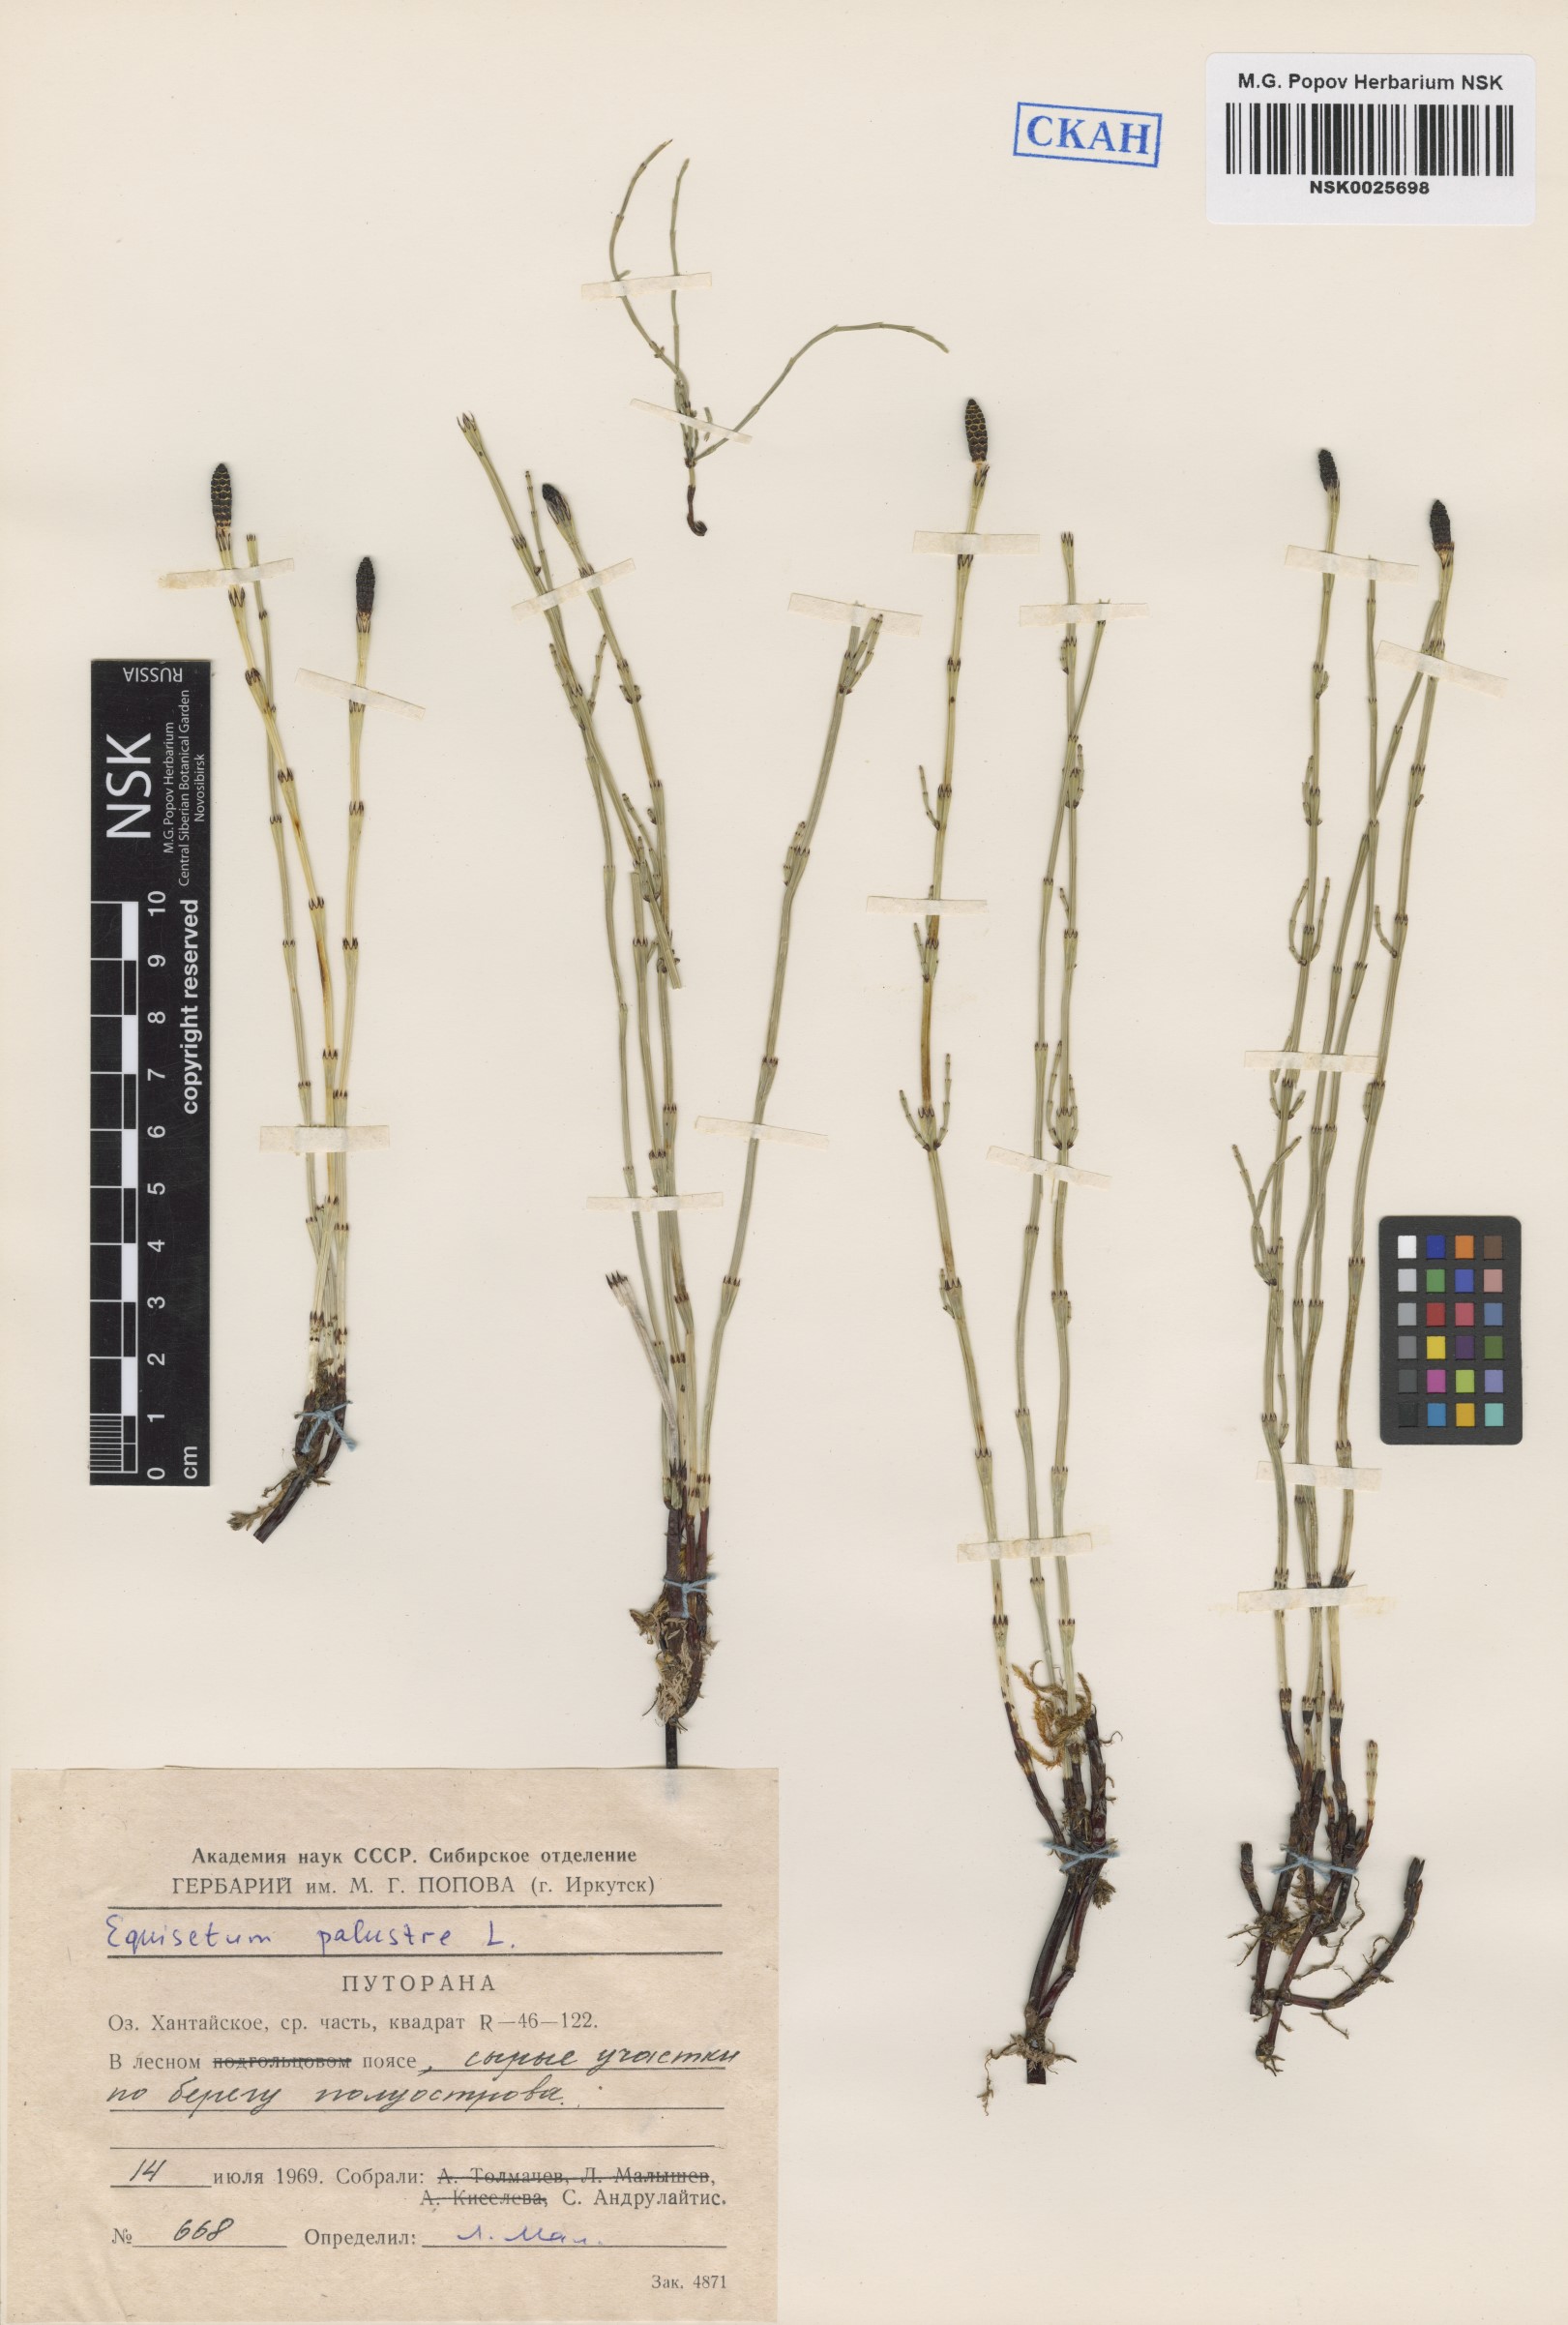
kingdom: Plantae
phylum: Tracheophyta
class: Polypodiopsida
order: Equisetales
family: Equisetaceae
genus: Equisetum
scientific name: Equisetum palustre
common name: Marsh horsetail
